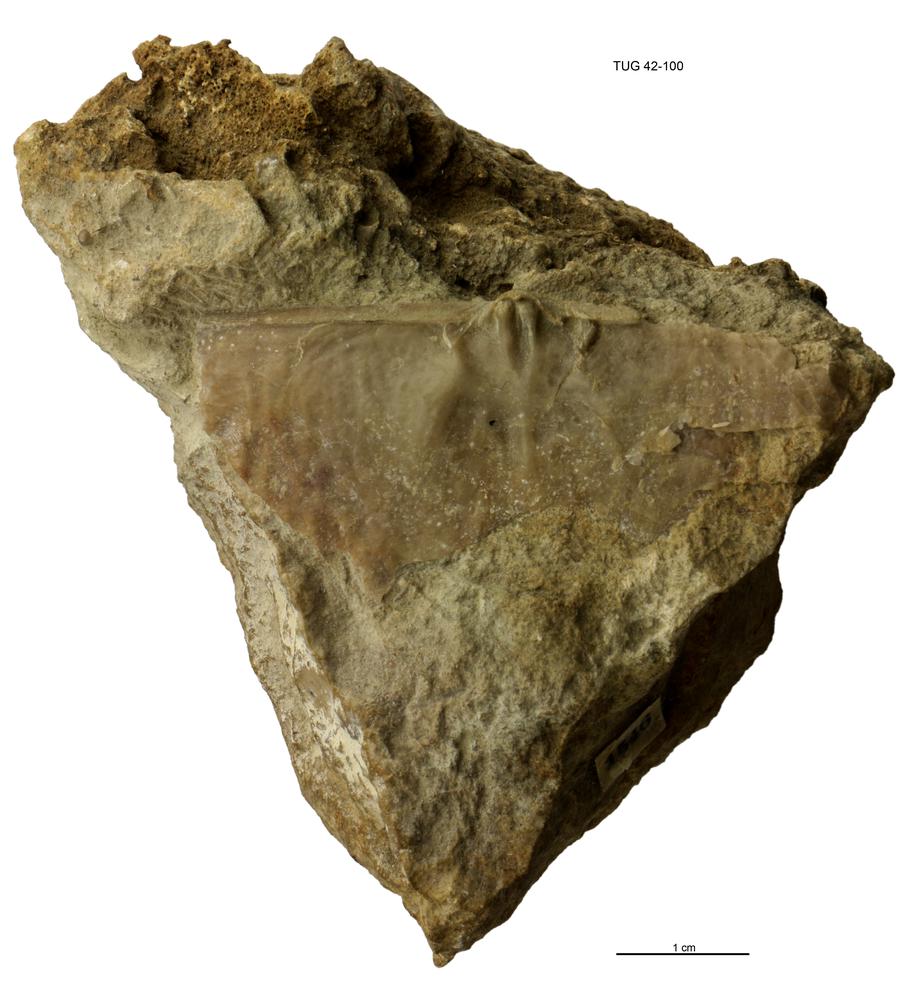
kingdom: Animalia
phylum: Brachiopoda
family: Strophomenidae
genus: Saxbyonia
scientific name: Saxbyonia fluctuosa
